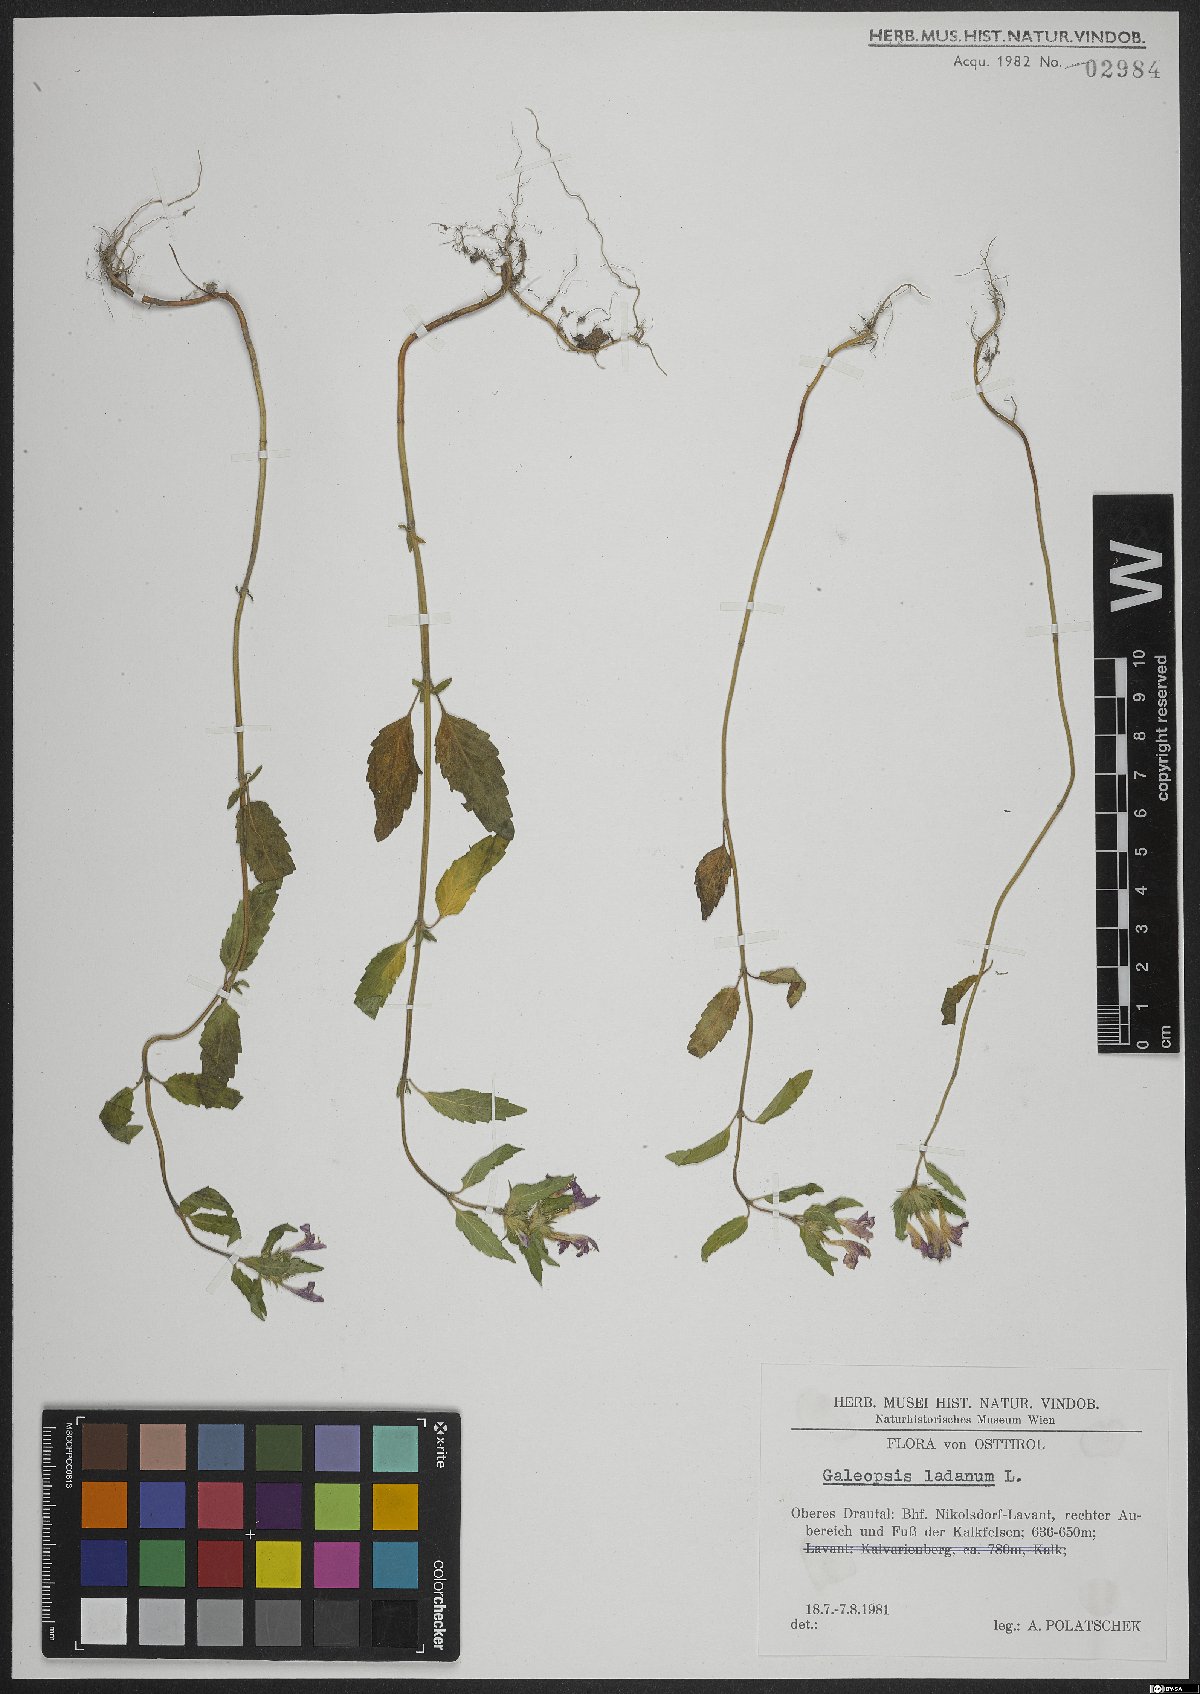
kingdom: Plantae
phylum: Tracheophyta
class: Magnoliopsida
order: Lamiales
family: Lamiaceae
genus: Galeopsis
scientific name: Galeopsis ladanum
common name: Broad-leaved hemp-nettle
